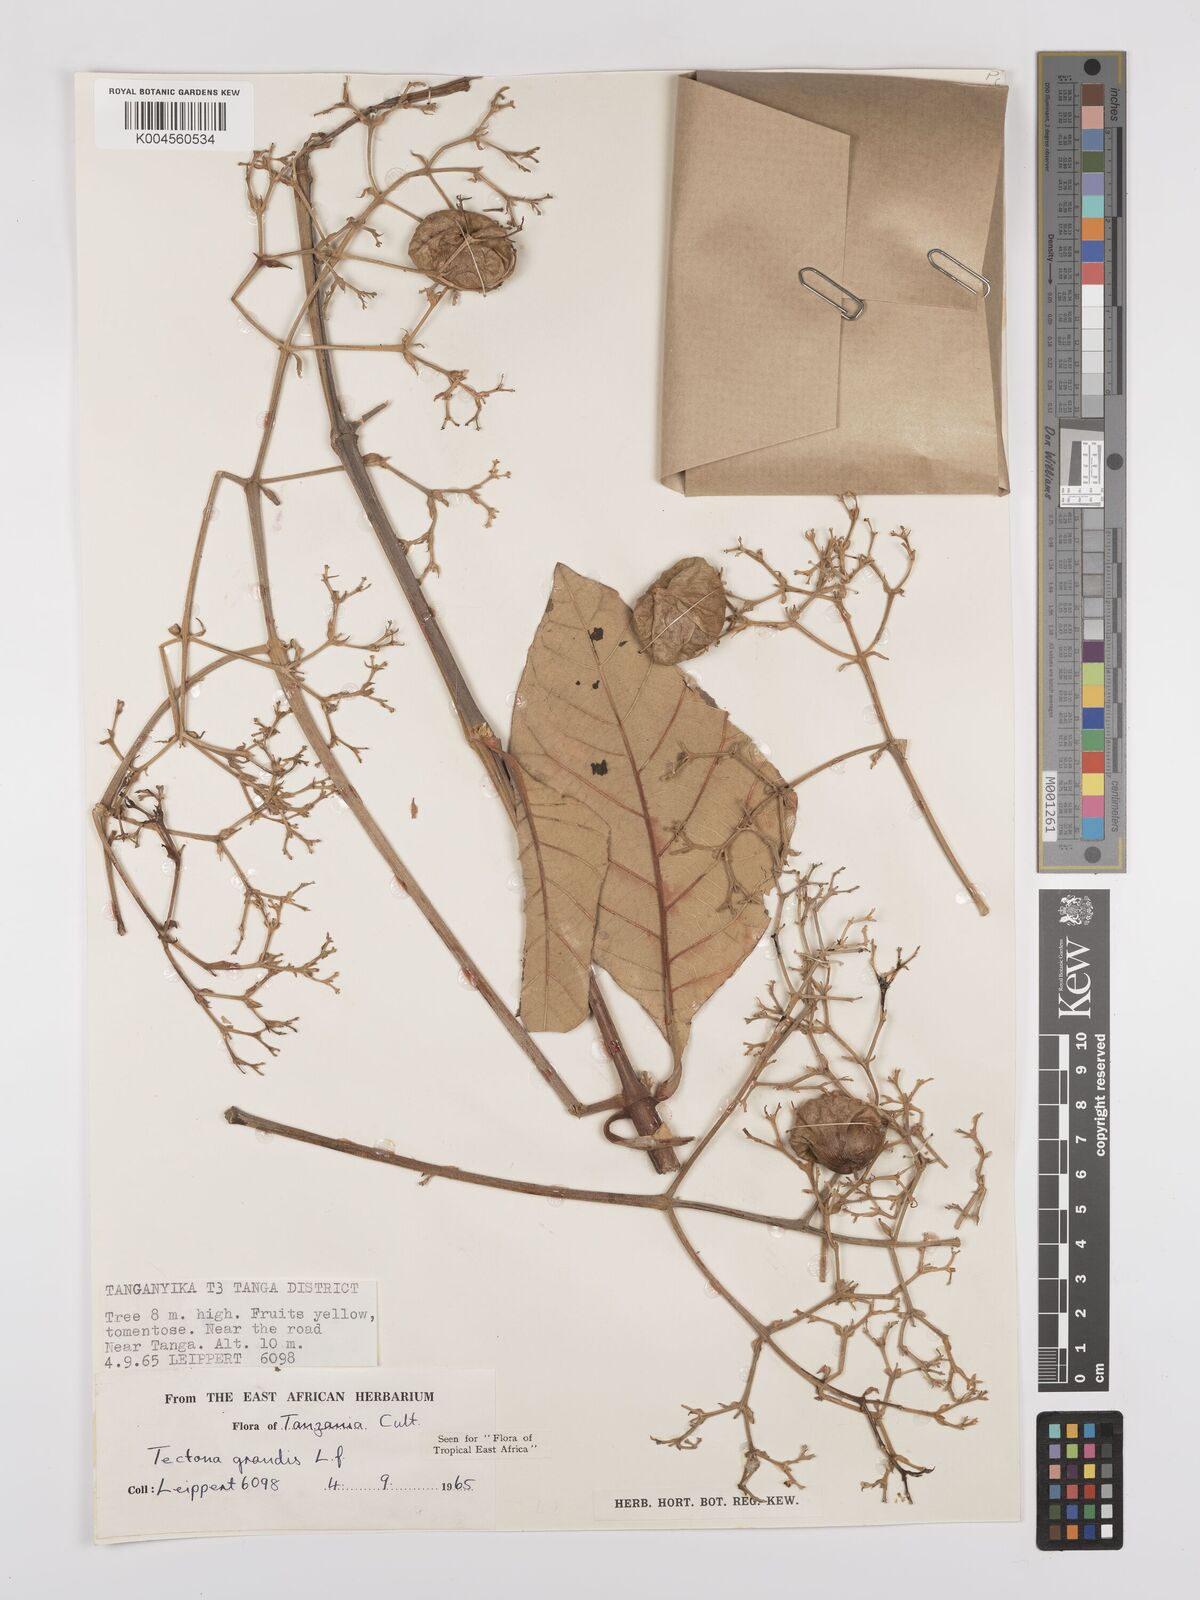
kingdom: Plantae
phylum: Tracheophyta
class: Magnoliopsida
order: Lamiales
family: Lamiaceae
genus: Tectona
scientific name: Tectona grandis
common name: Teak
